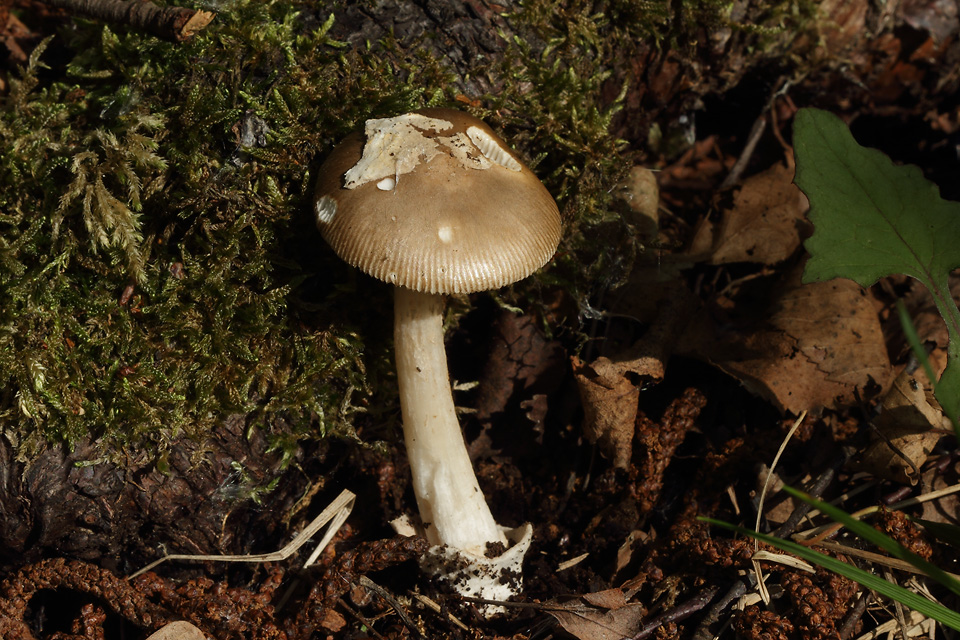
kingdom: Fungi
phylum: Basidiomycota
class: Agaricomycetes
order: Agaricales
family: Amanitaceae
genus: Amanita
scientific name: Amanita olivaceogrisea
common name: olivengrå kam-fluesvamp
